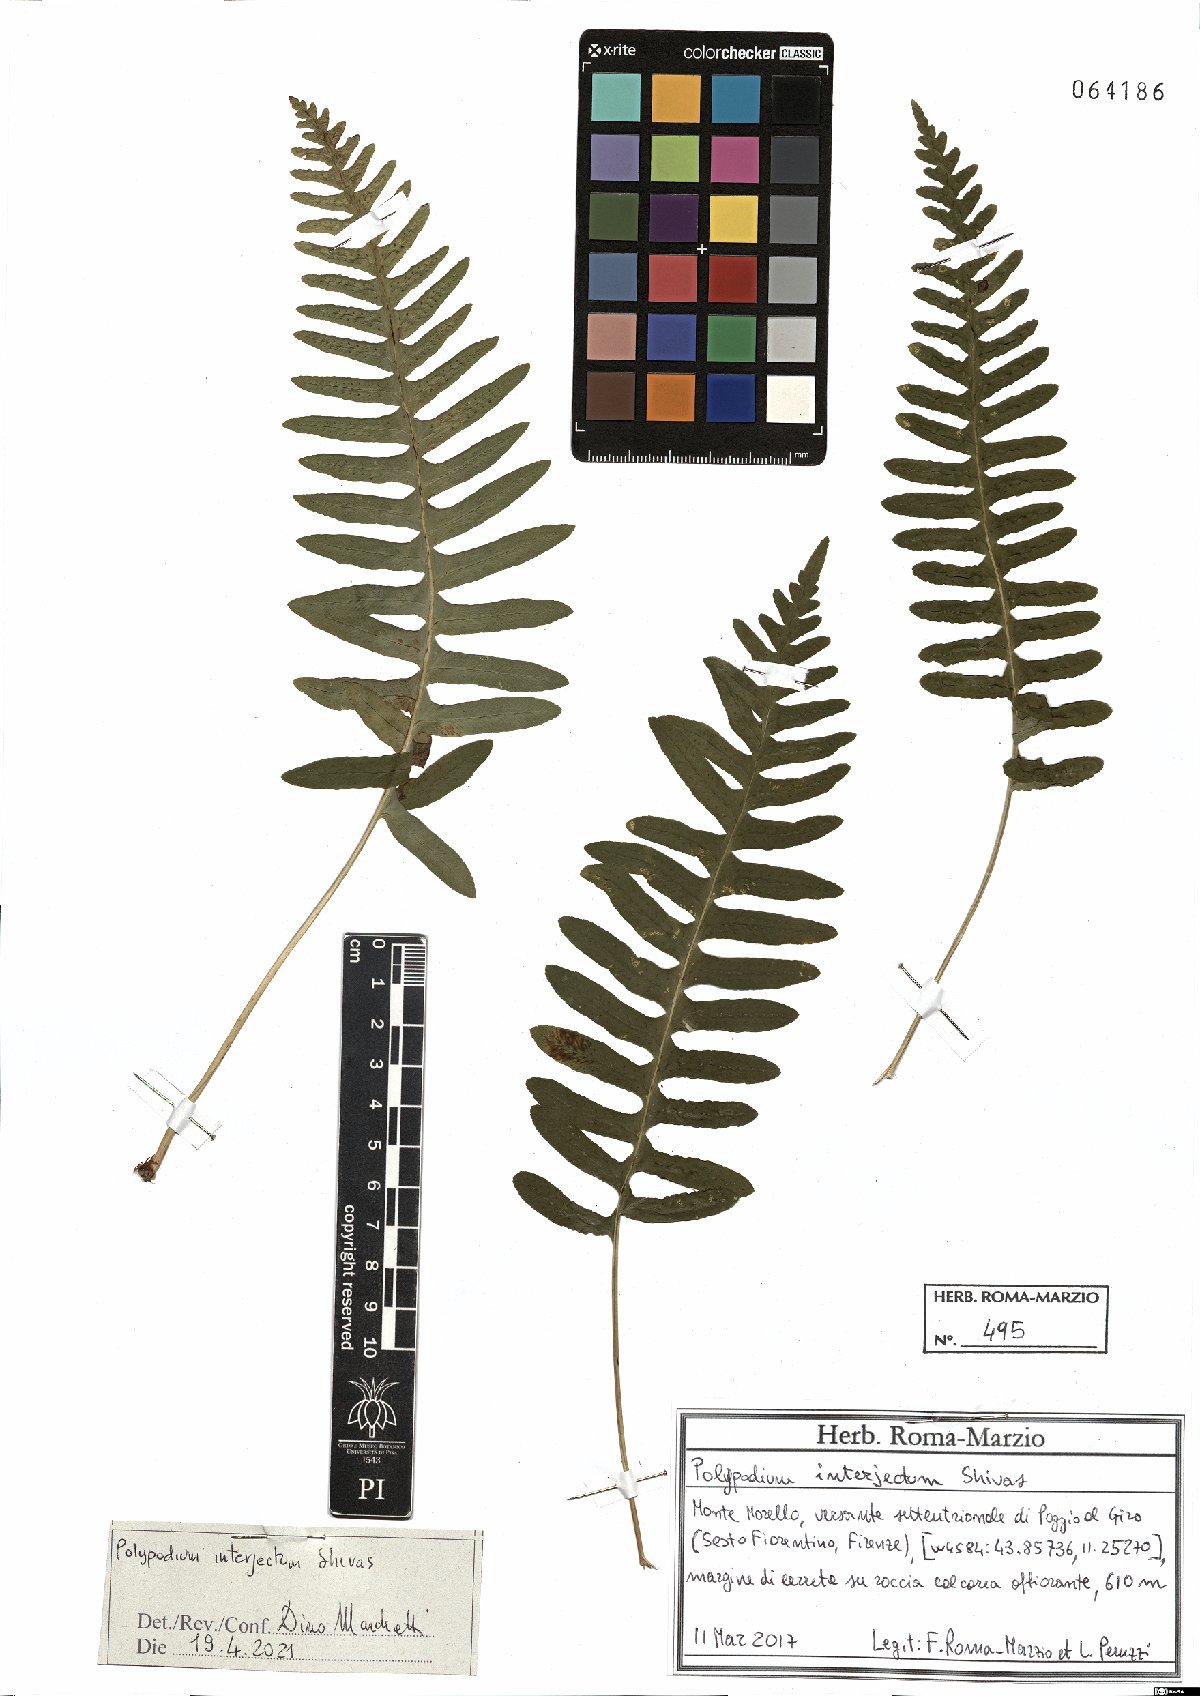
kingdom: Plantae
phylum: Tracheophyta
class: Polypodiopsida
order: Polypodiales
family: Polypodiaceae
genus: Polypodium
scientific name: Polypodium interjectum
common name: Intermediate polypody
